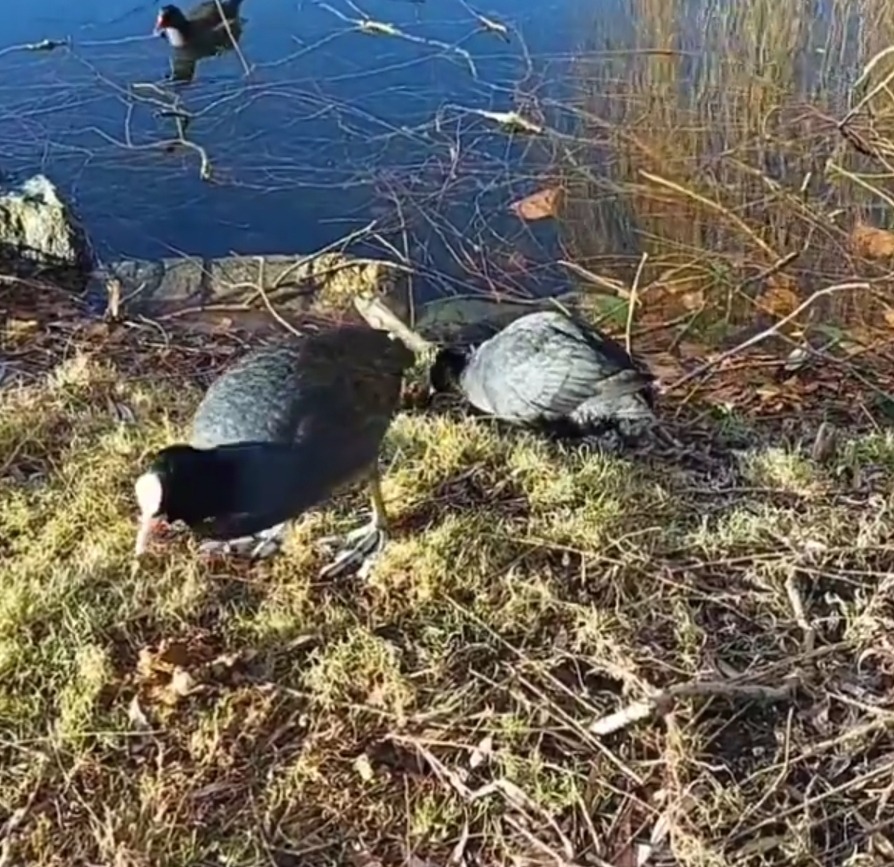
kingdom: Animalia
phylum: Chordata
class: Aves
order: Gruiformes
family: Rallidae
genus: Fulica
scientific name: Fulica atra
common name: Blishøne
